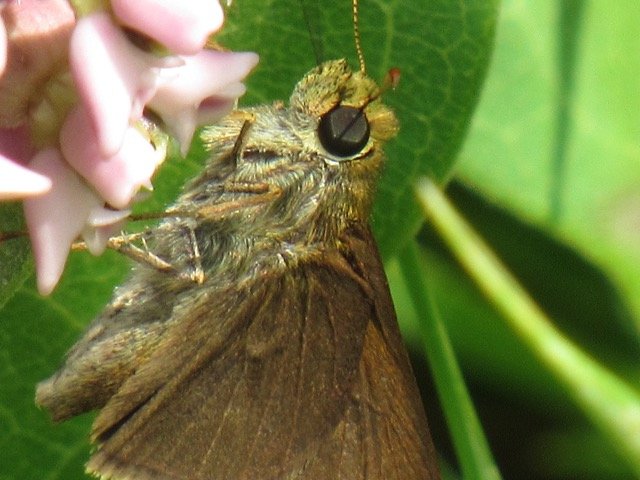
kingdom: Animalia
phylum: Arthropoda
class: Insecta
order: Lepidoptera
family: Hesperiidae
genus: Euphyes
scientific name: Euphyes vestris
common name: Dun Skipper
